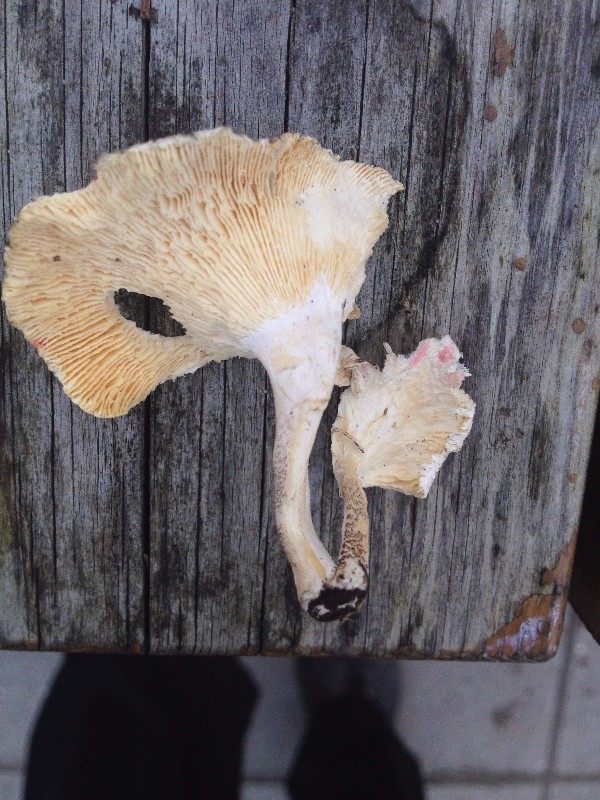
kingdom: Fungi
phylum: Basidiomycota
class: Agaricomycetes
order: Polyporales
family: Polyporaceae
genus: Lentinus
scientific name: Lentinus tigrinus
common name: tigerhat
